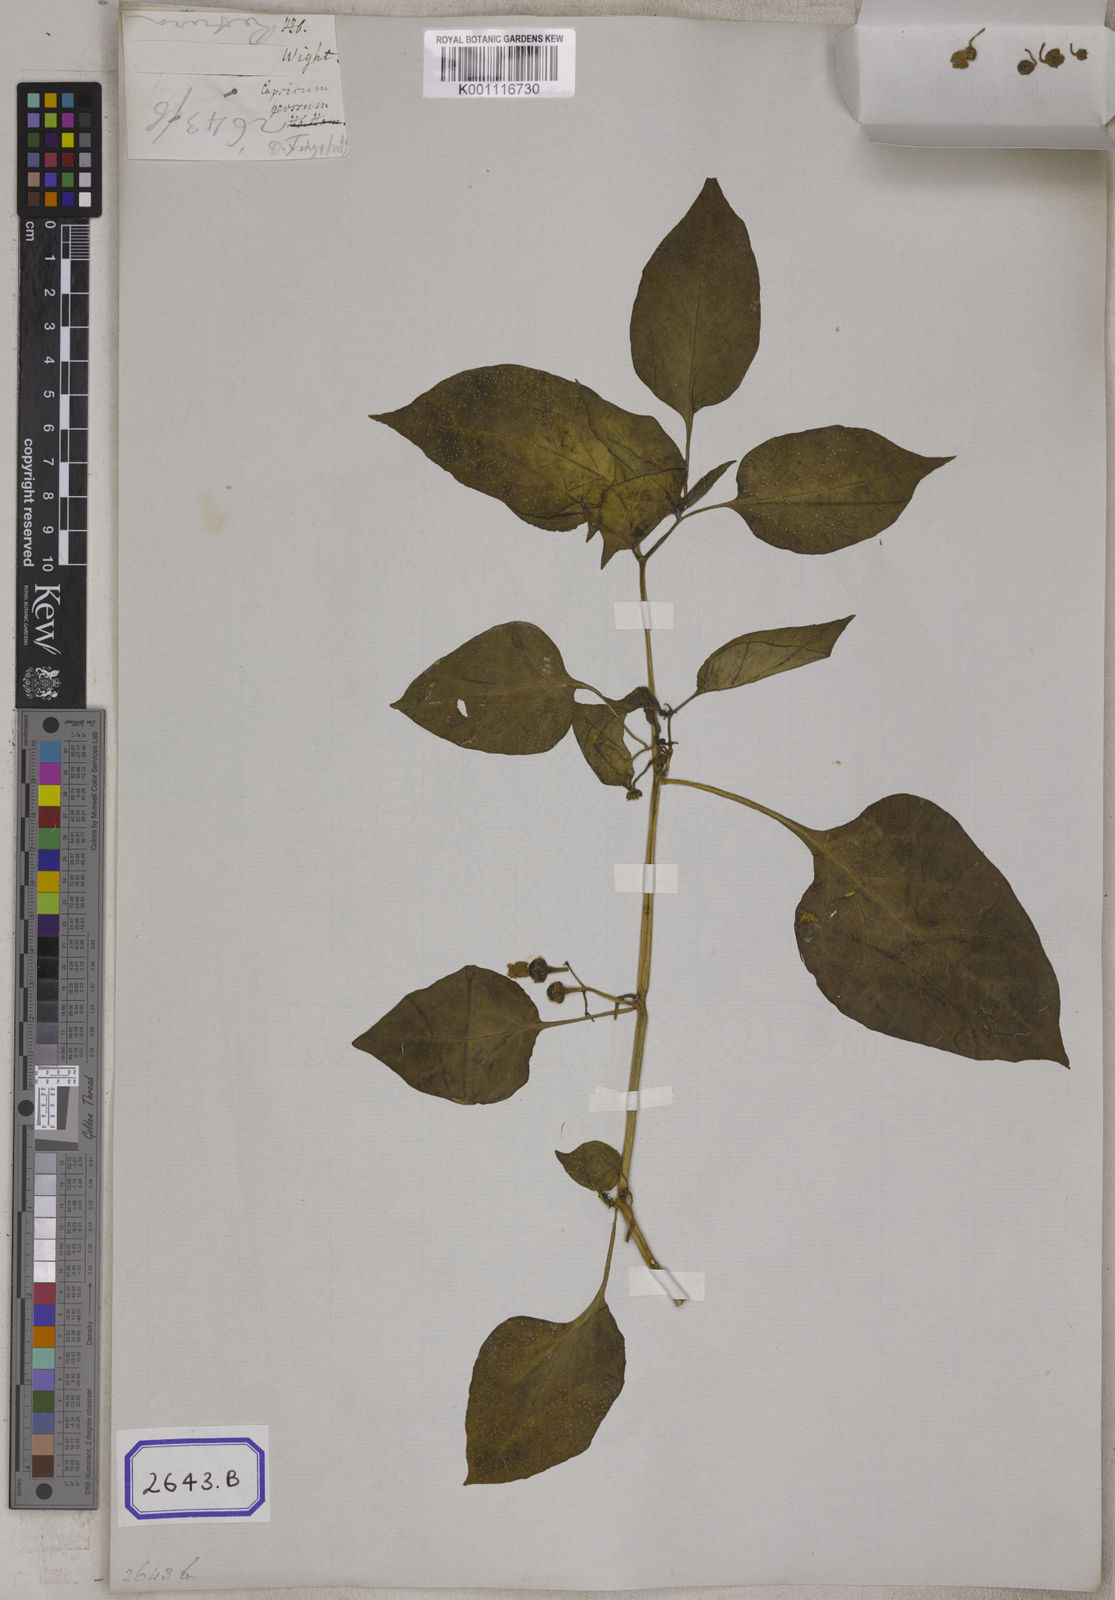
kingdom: Plantae
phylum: Tracheophyta
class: Magnoliopsida
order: Solanales
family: Solanaceae
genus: Capsicum
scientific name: Capsicum annuum
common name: Sweet pepper
